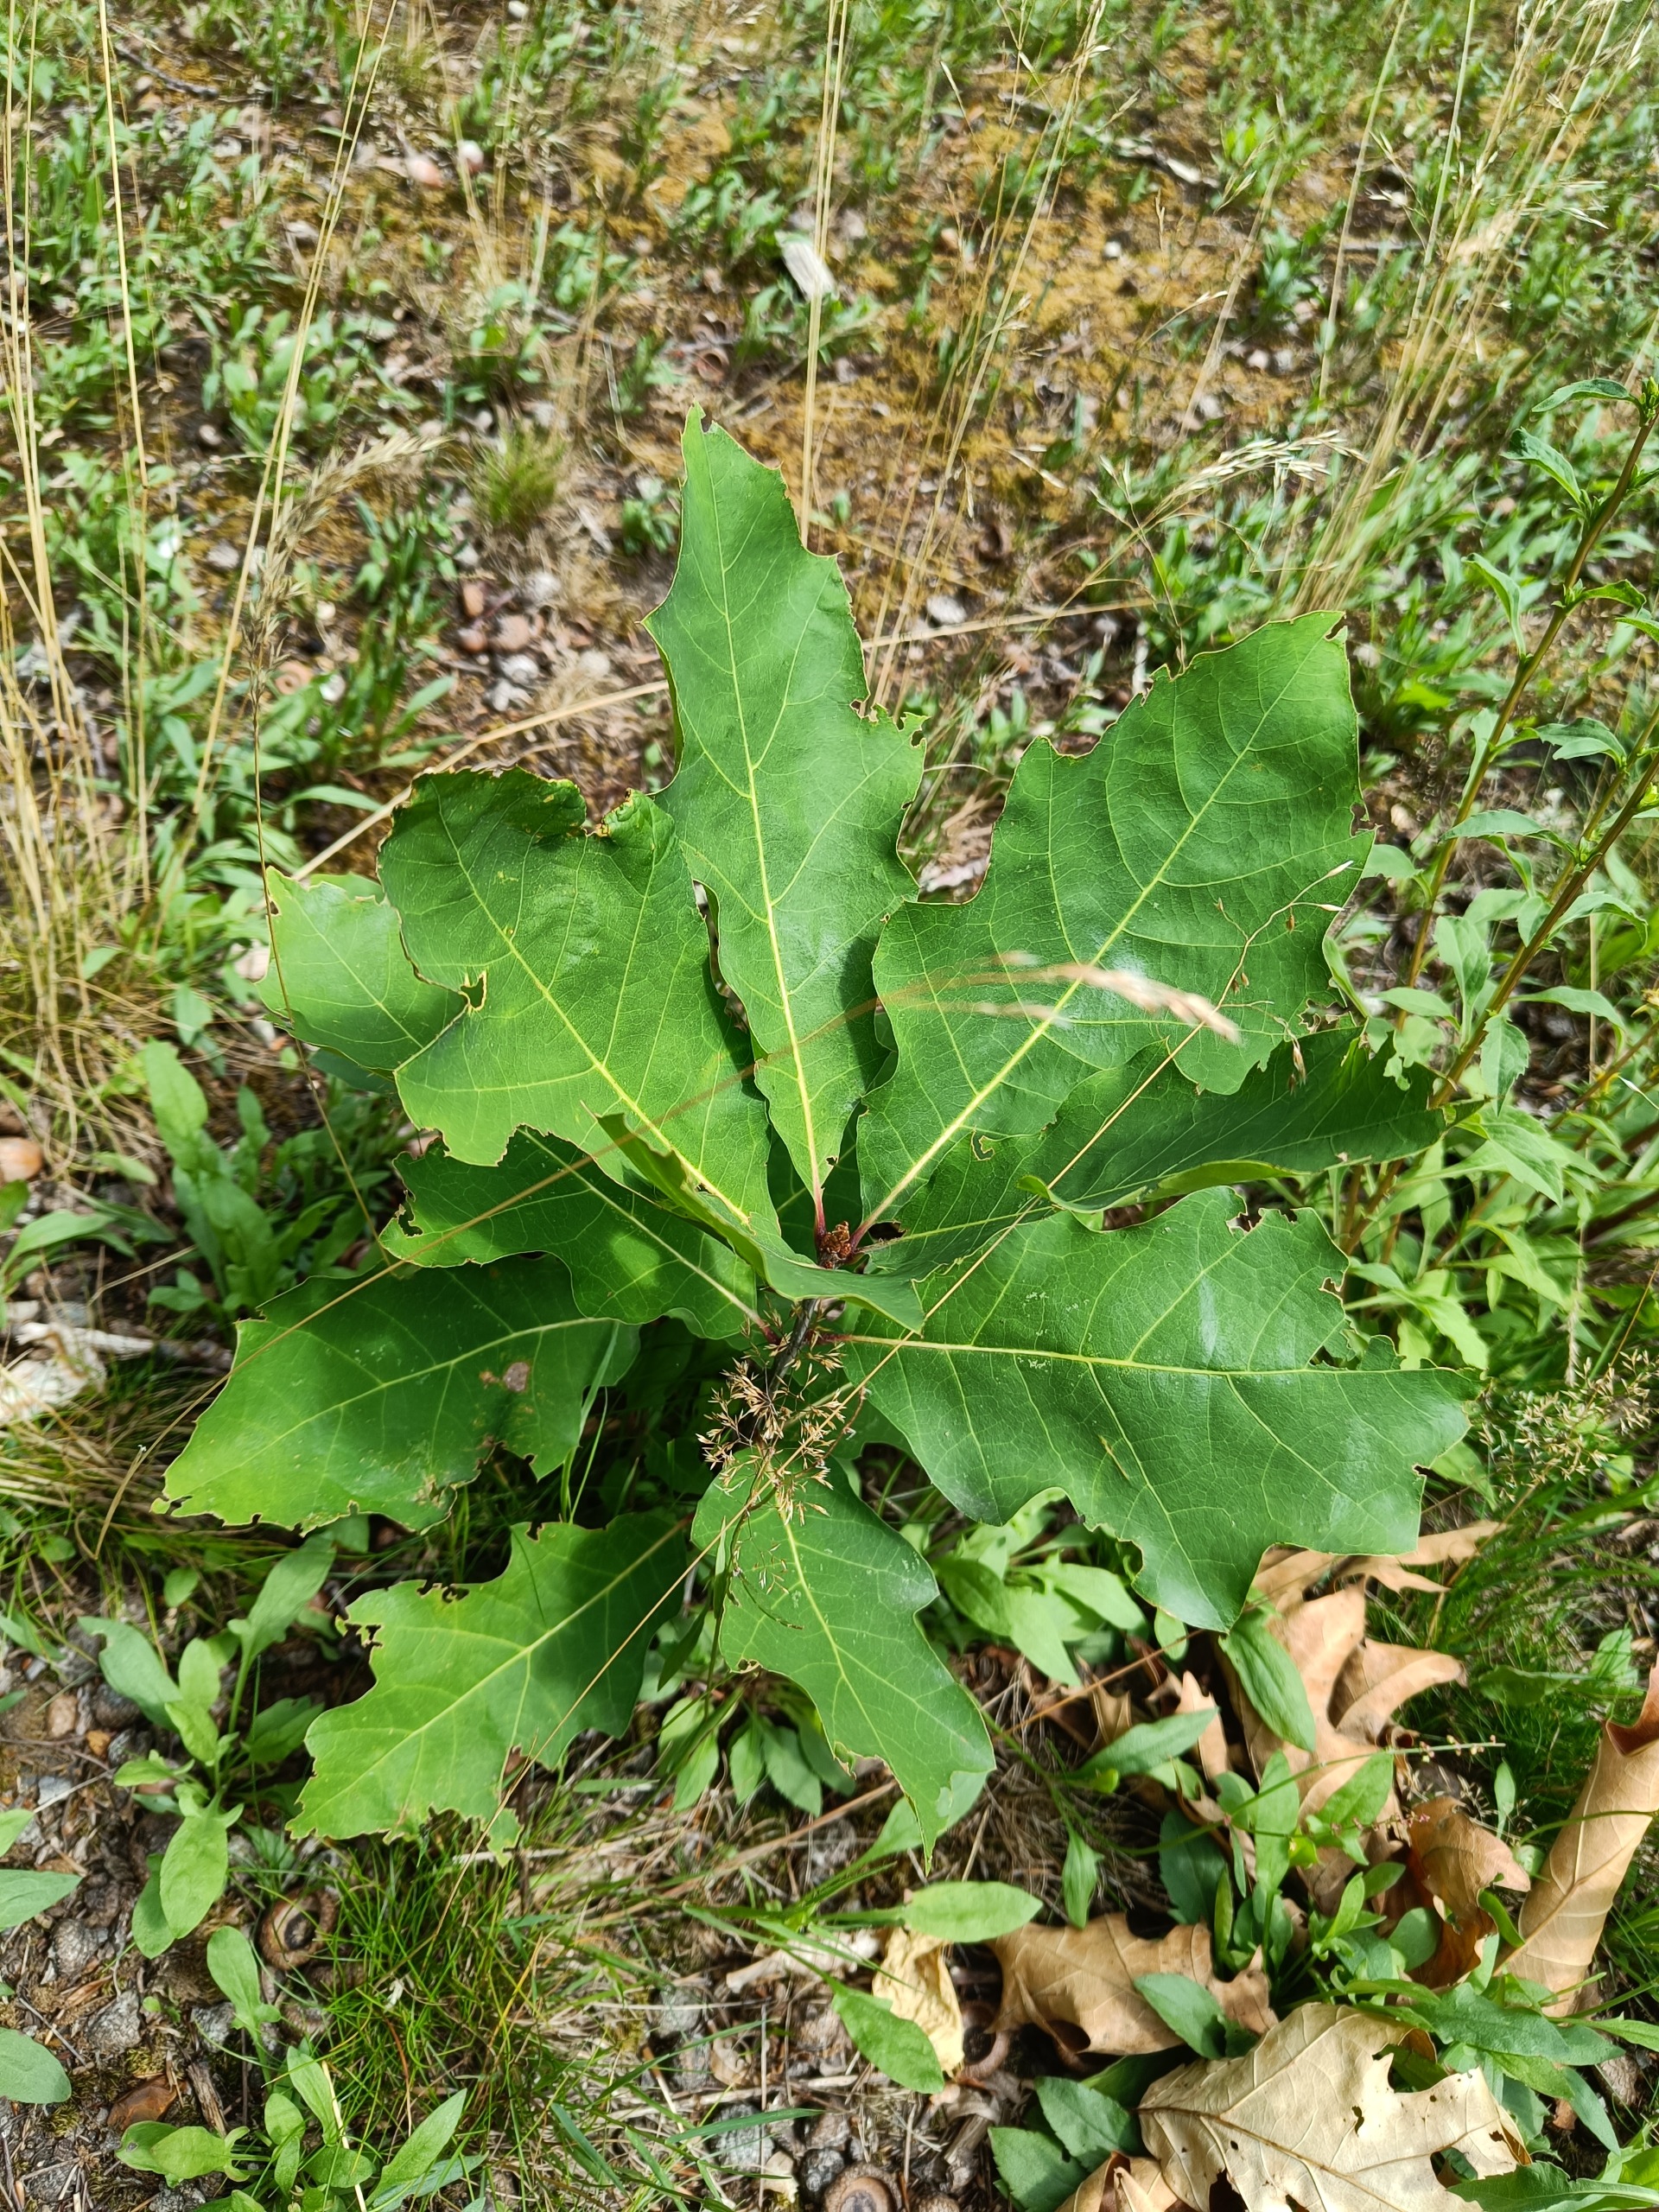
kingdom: Plantae
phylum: Tracheophyta
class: Magnoliopsida
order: Fagales
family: Fagaceae
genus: Quercus
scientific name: Quercus rubra
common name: Rød-eg
